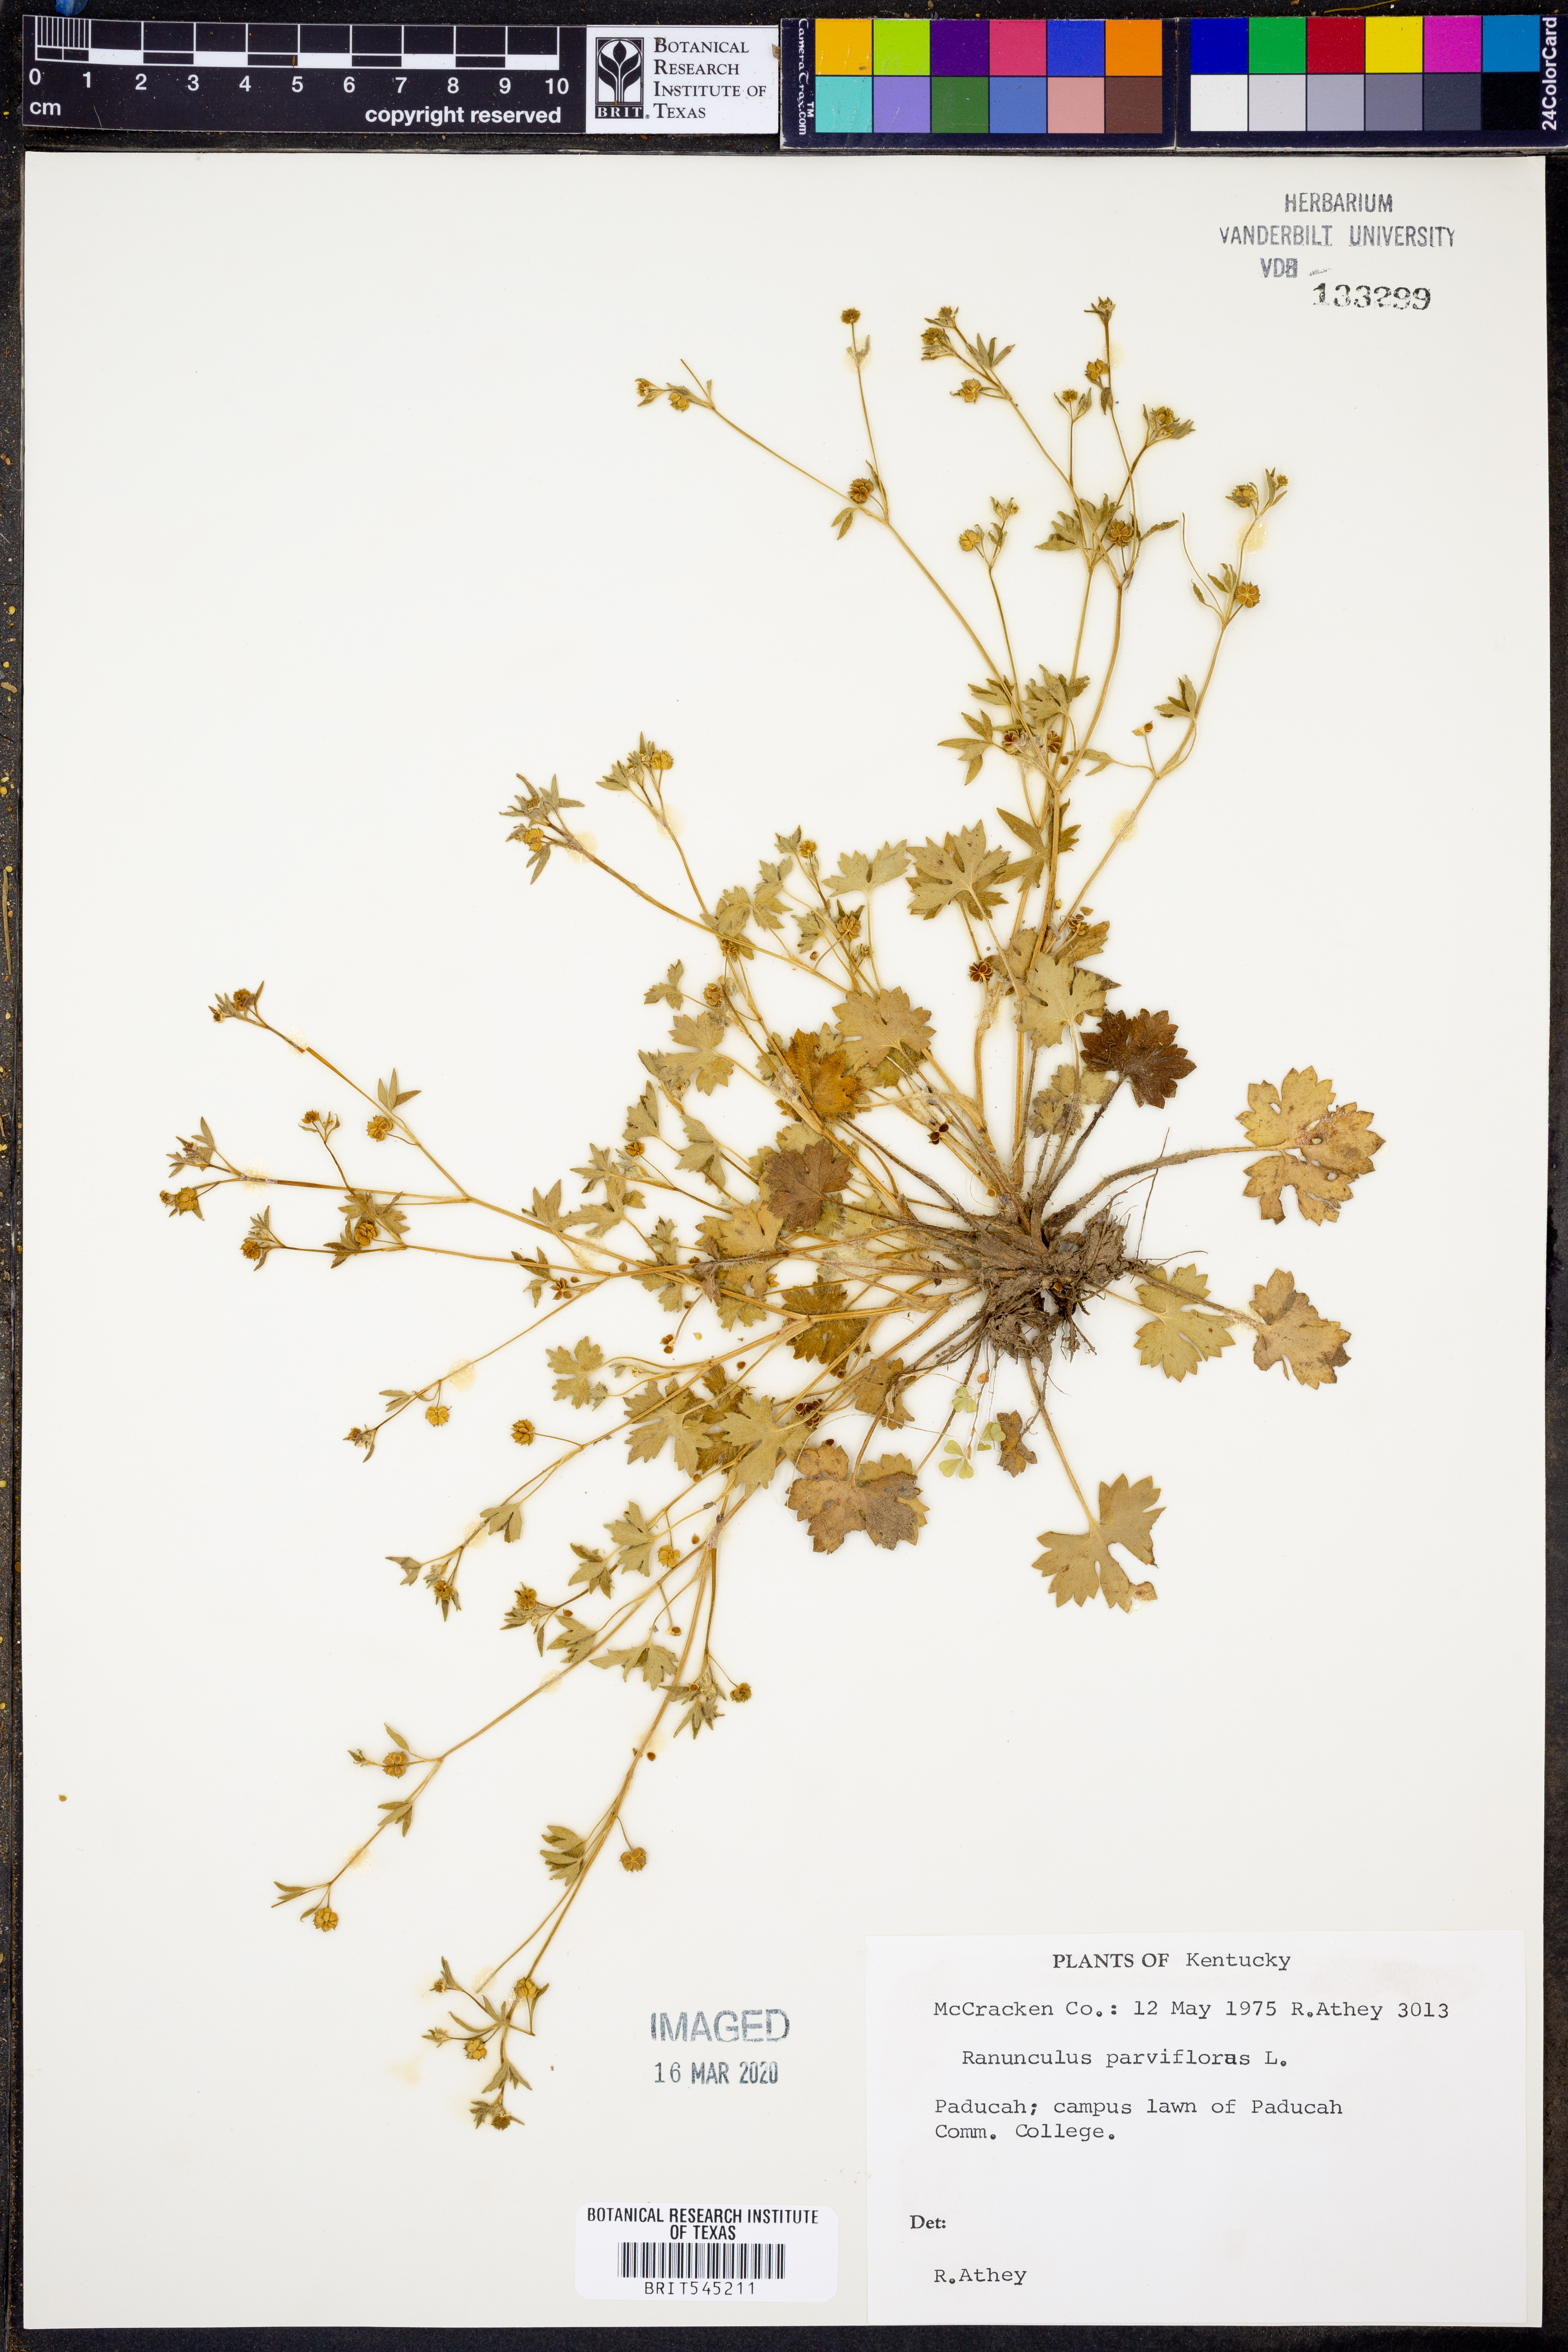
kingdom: Plantae
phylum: Tracheophyta
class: Magnoliopsida
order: Ranunculales
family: Ranunculaceae
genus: Ranunculus
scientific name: Ranunculus parviflorus
